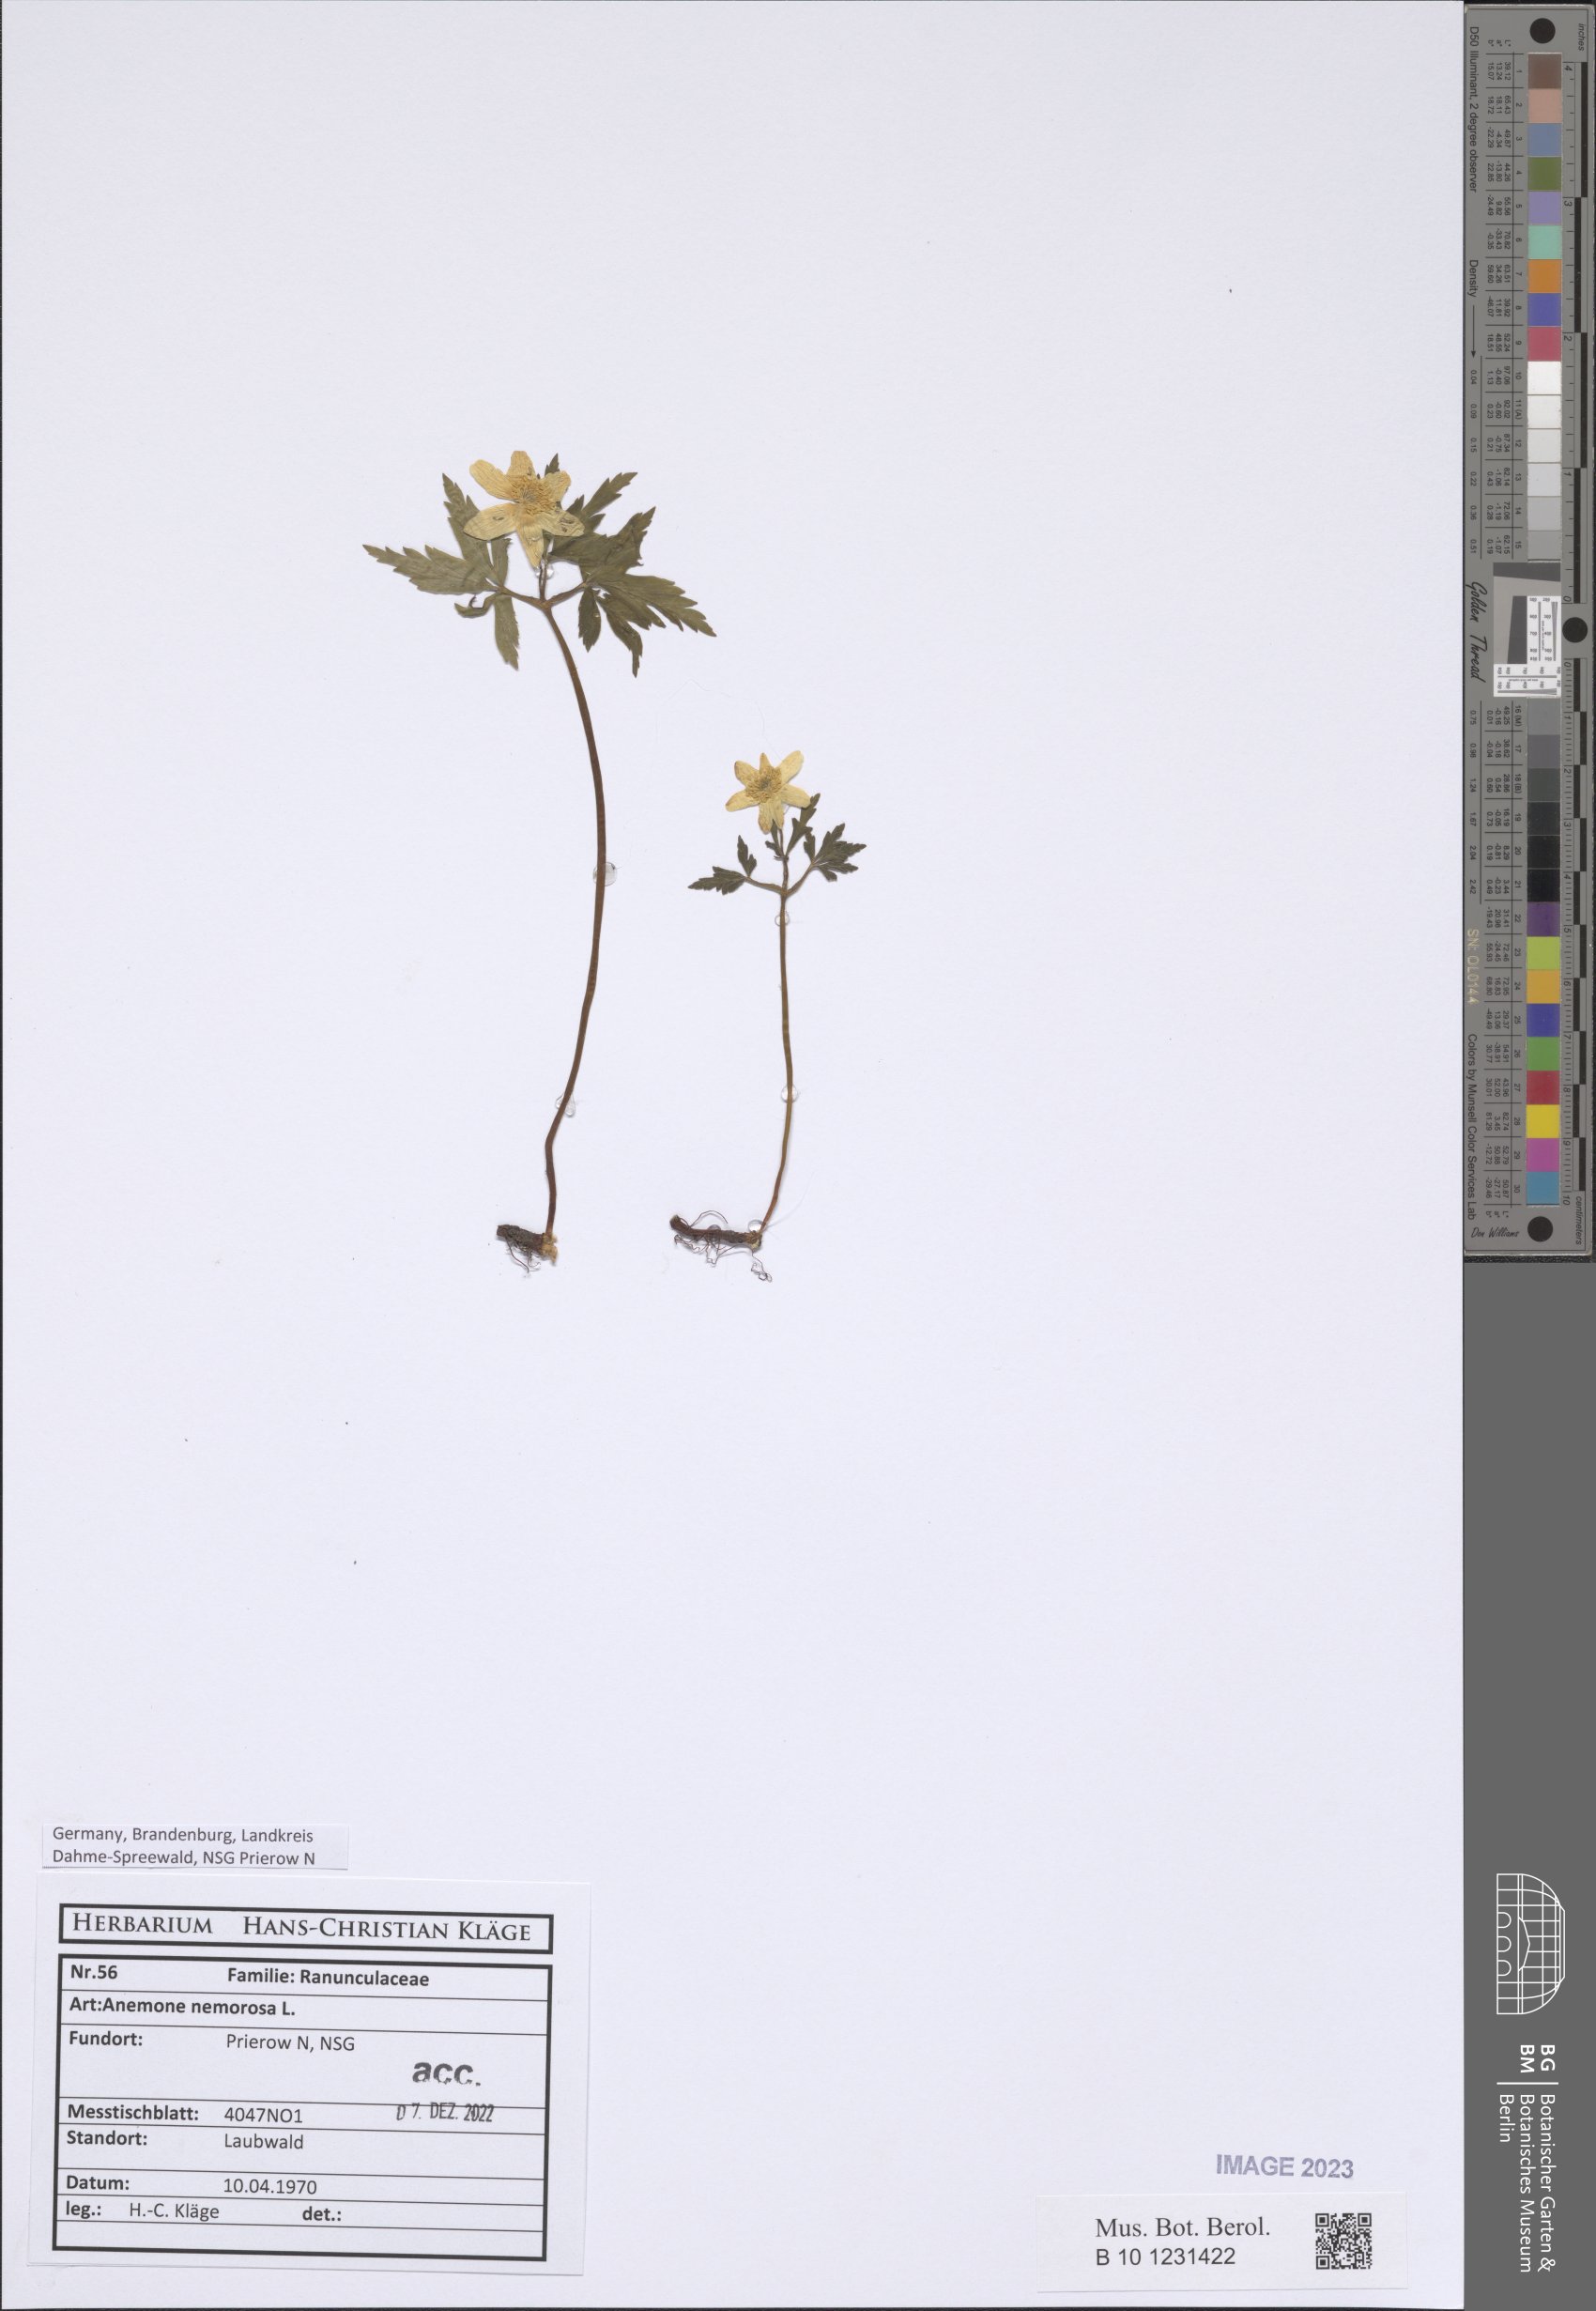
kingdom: Plantae
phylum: Tracheophyta
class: Magnoliopsida
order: Ranunculales
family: Ranunculaceae
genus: Anemone
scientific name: Anemone nemorosa
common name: Wood anemone
